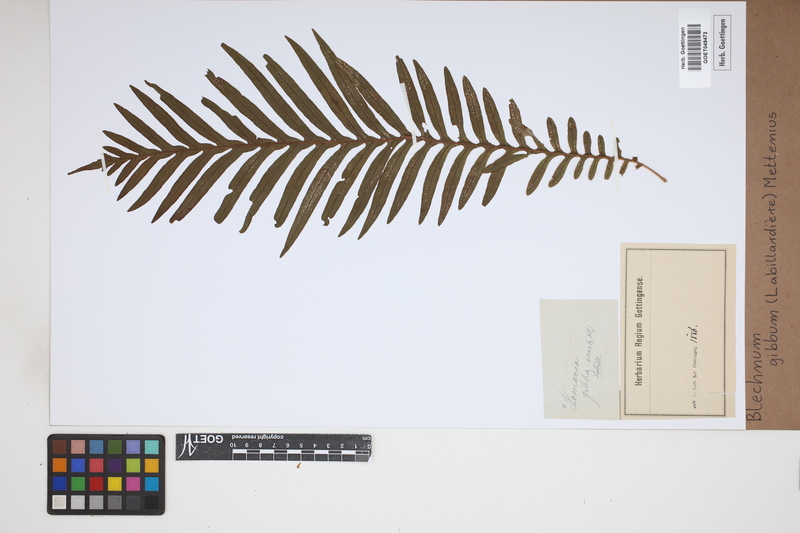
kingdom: Plantae
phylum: Tracheophyta
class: Polypodiopsida
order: Polypodiales
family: Blechnaceae
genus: Oceaniopteris
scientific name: Oceaniopteris gibba
